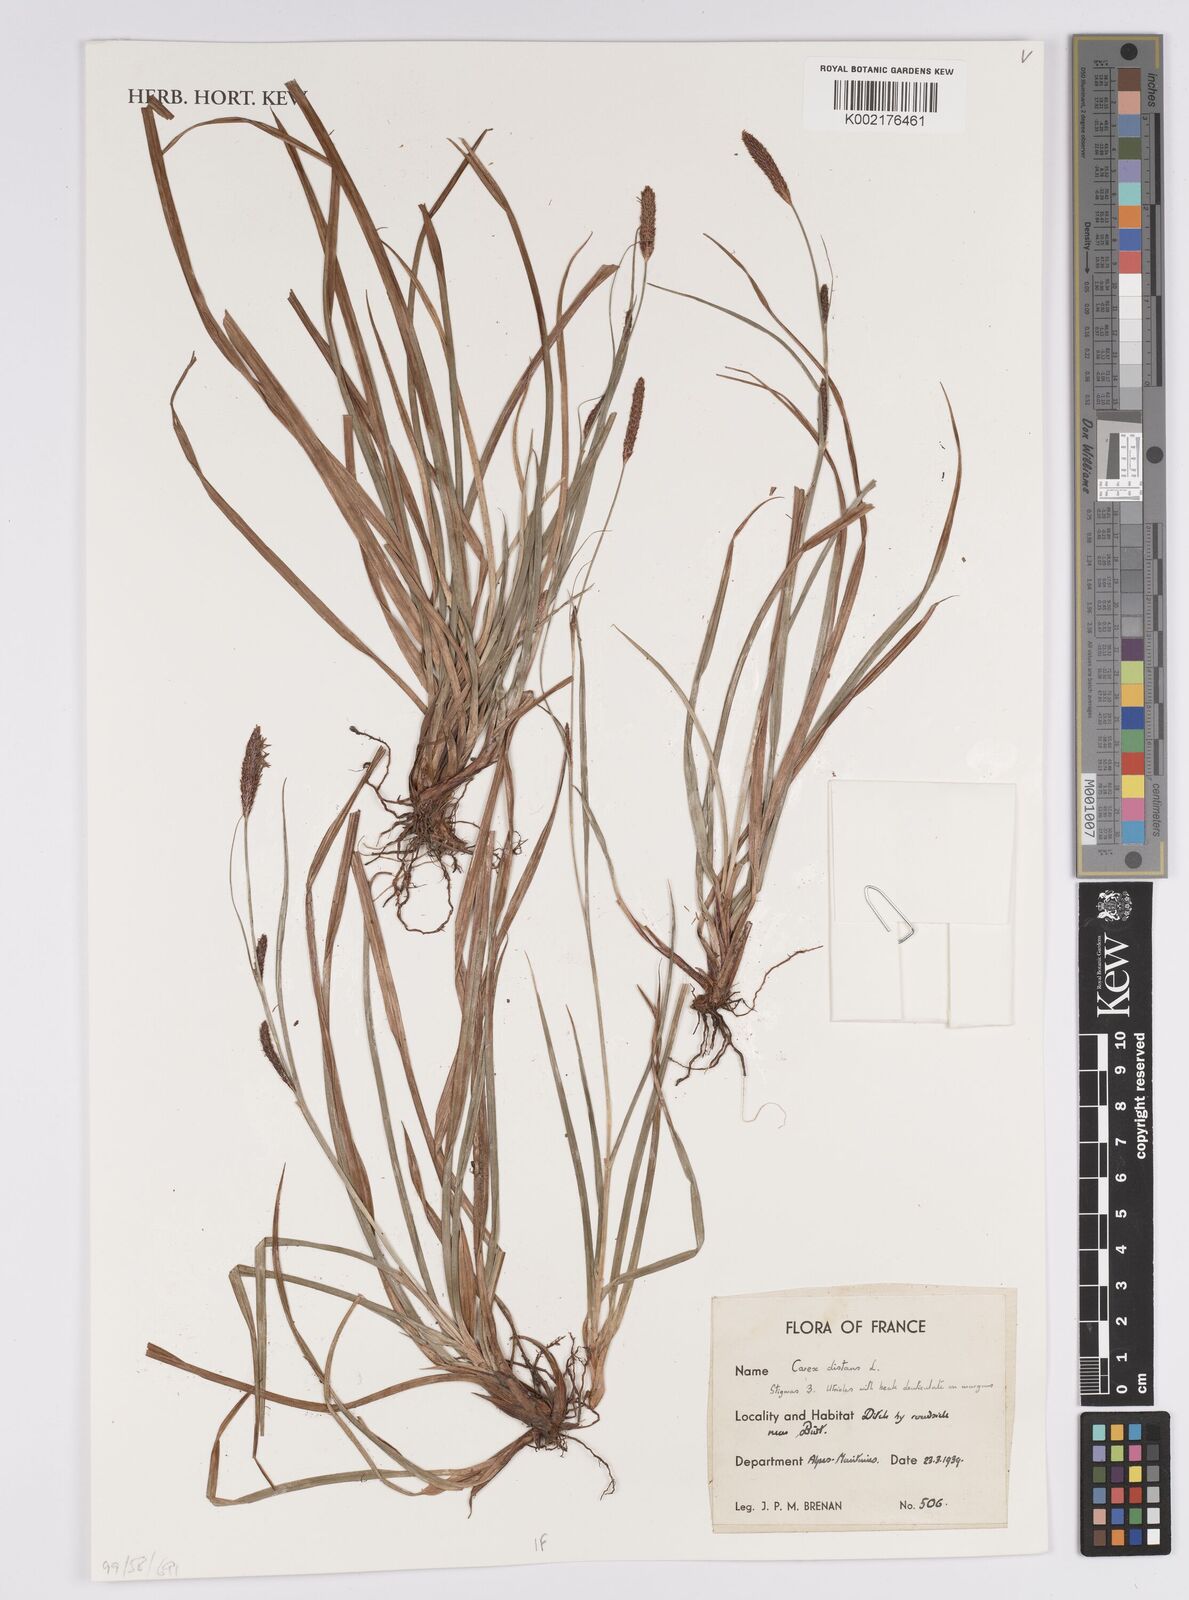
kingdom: Plantae
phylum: Tracheophyta
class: Liliopsida
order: Poales
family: Cyperaceae
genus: Carex
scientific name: Carex distans
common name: Distant sedge
